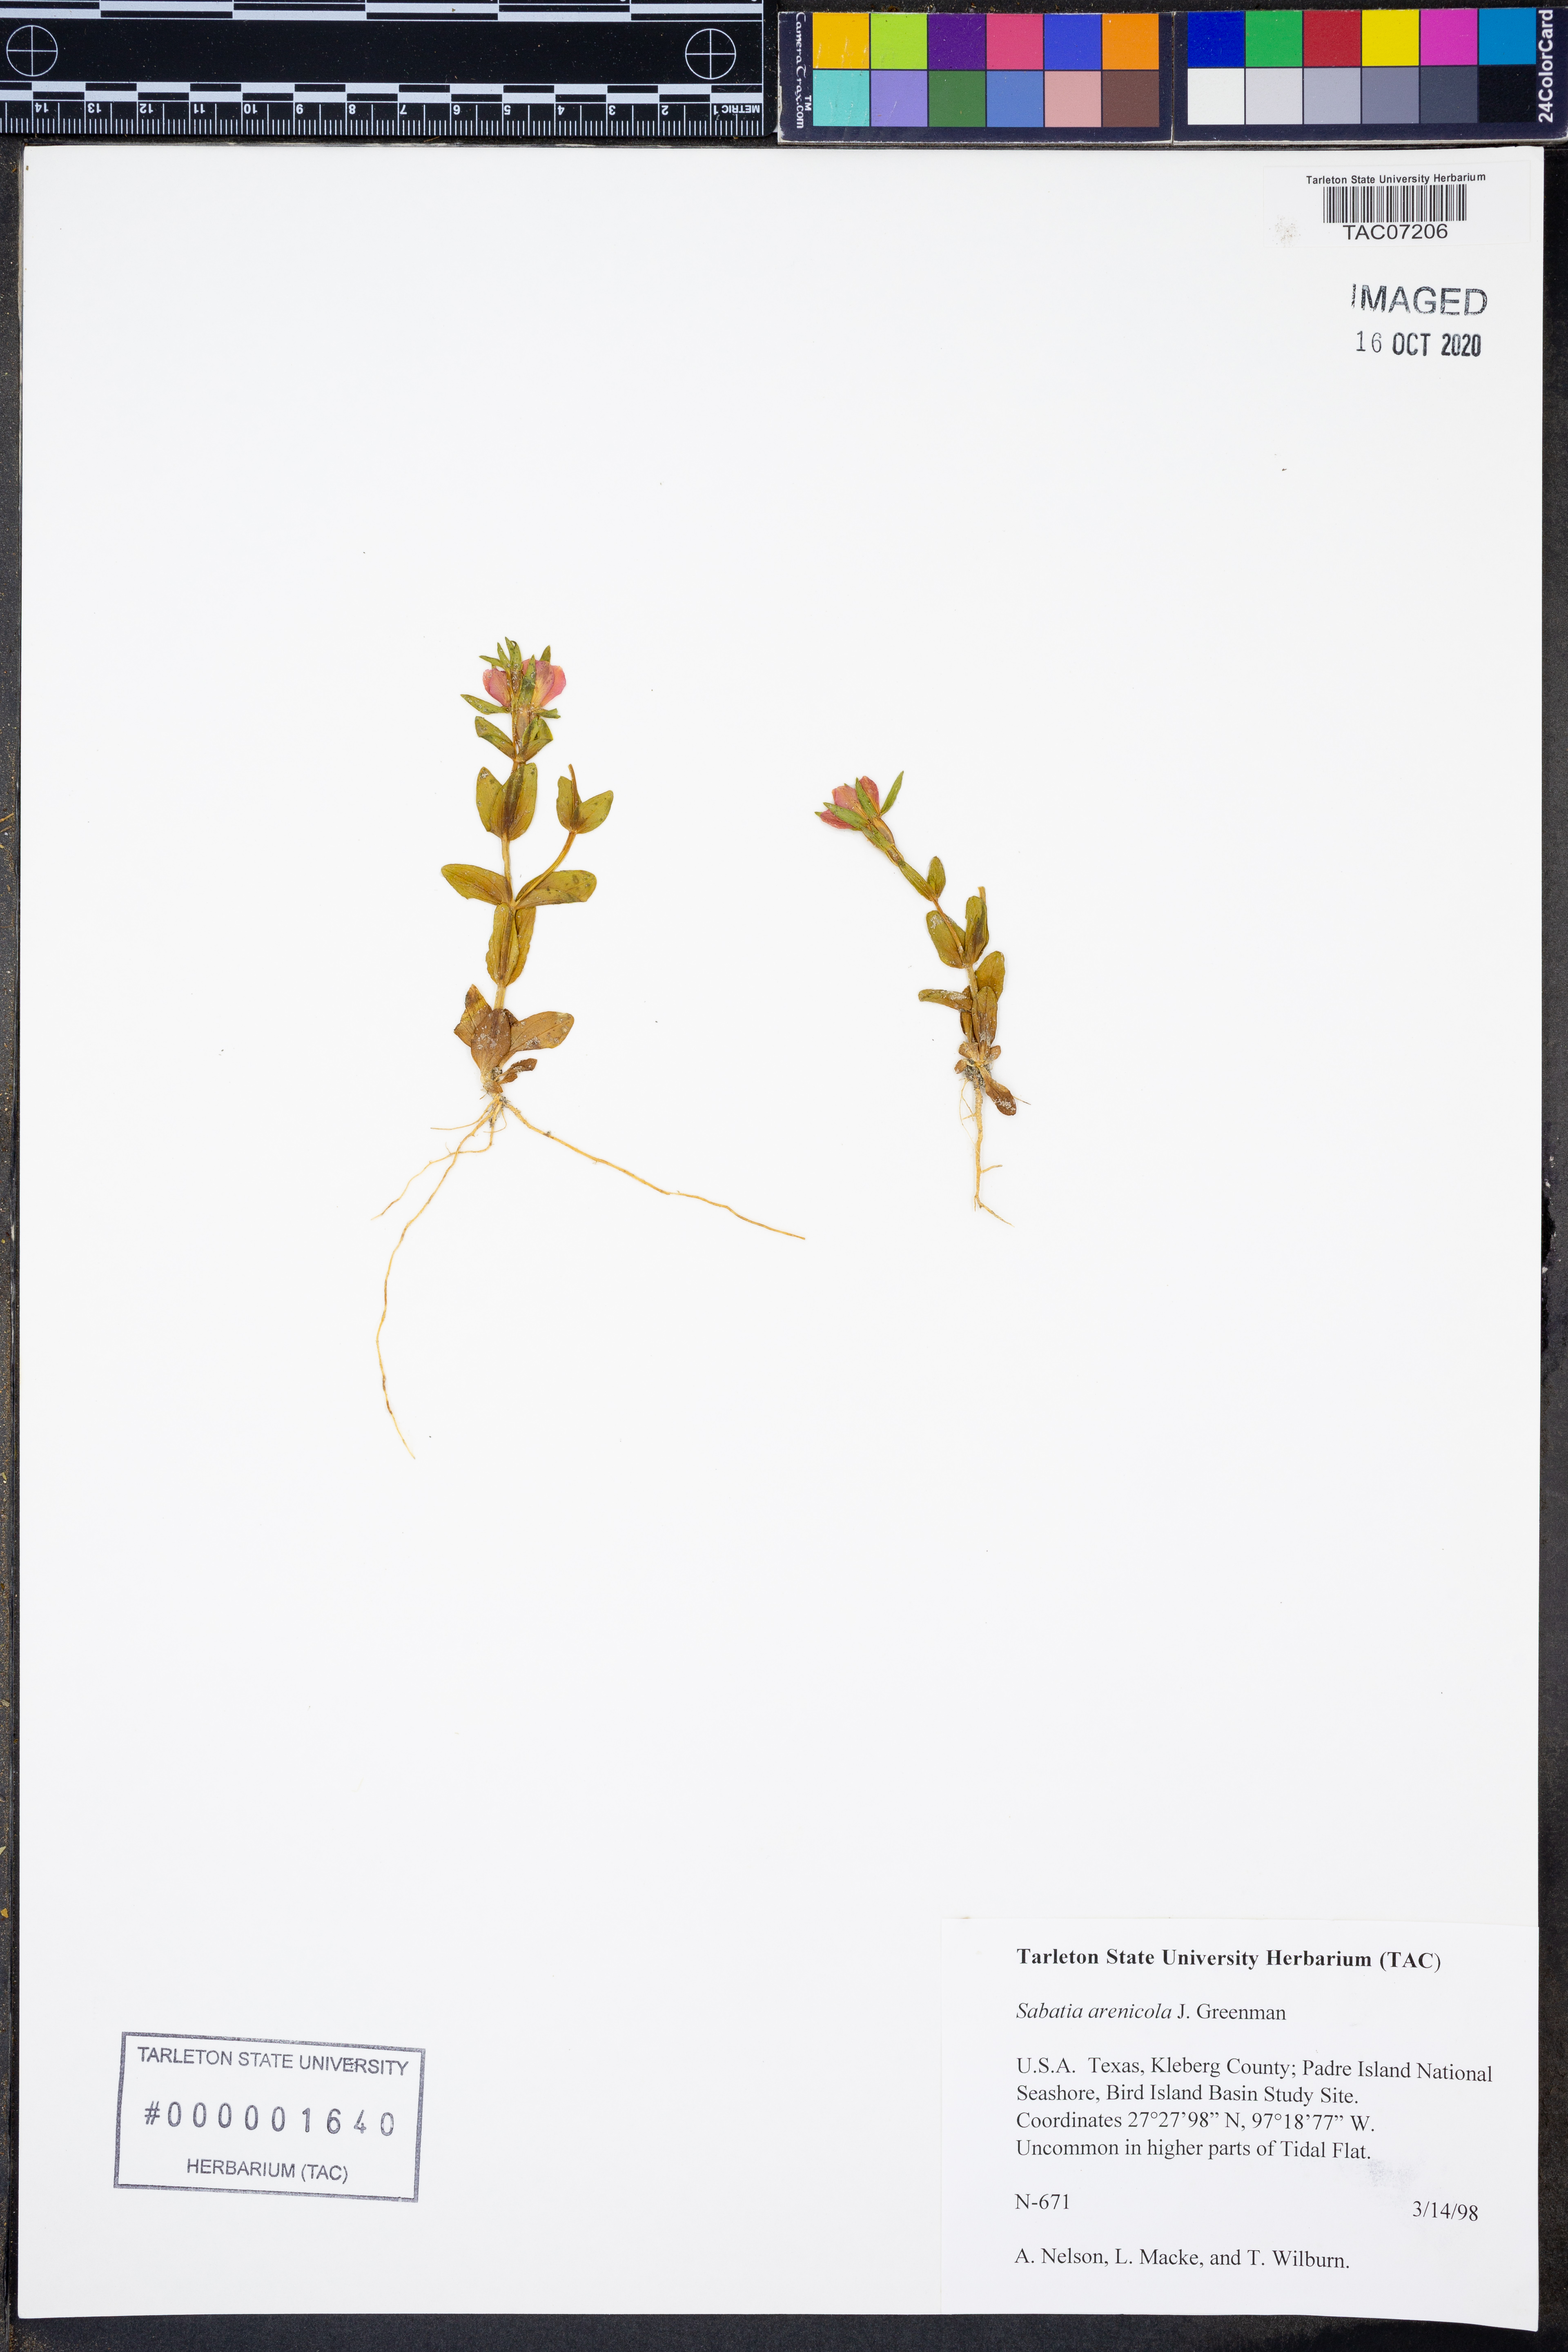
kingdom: Plantae
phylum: Tracheophyta
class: Magnoliopsida
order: Gentianales
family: Gentianaceae
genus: Sabatia
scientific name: Sabatia arenicola
